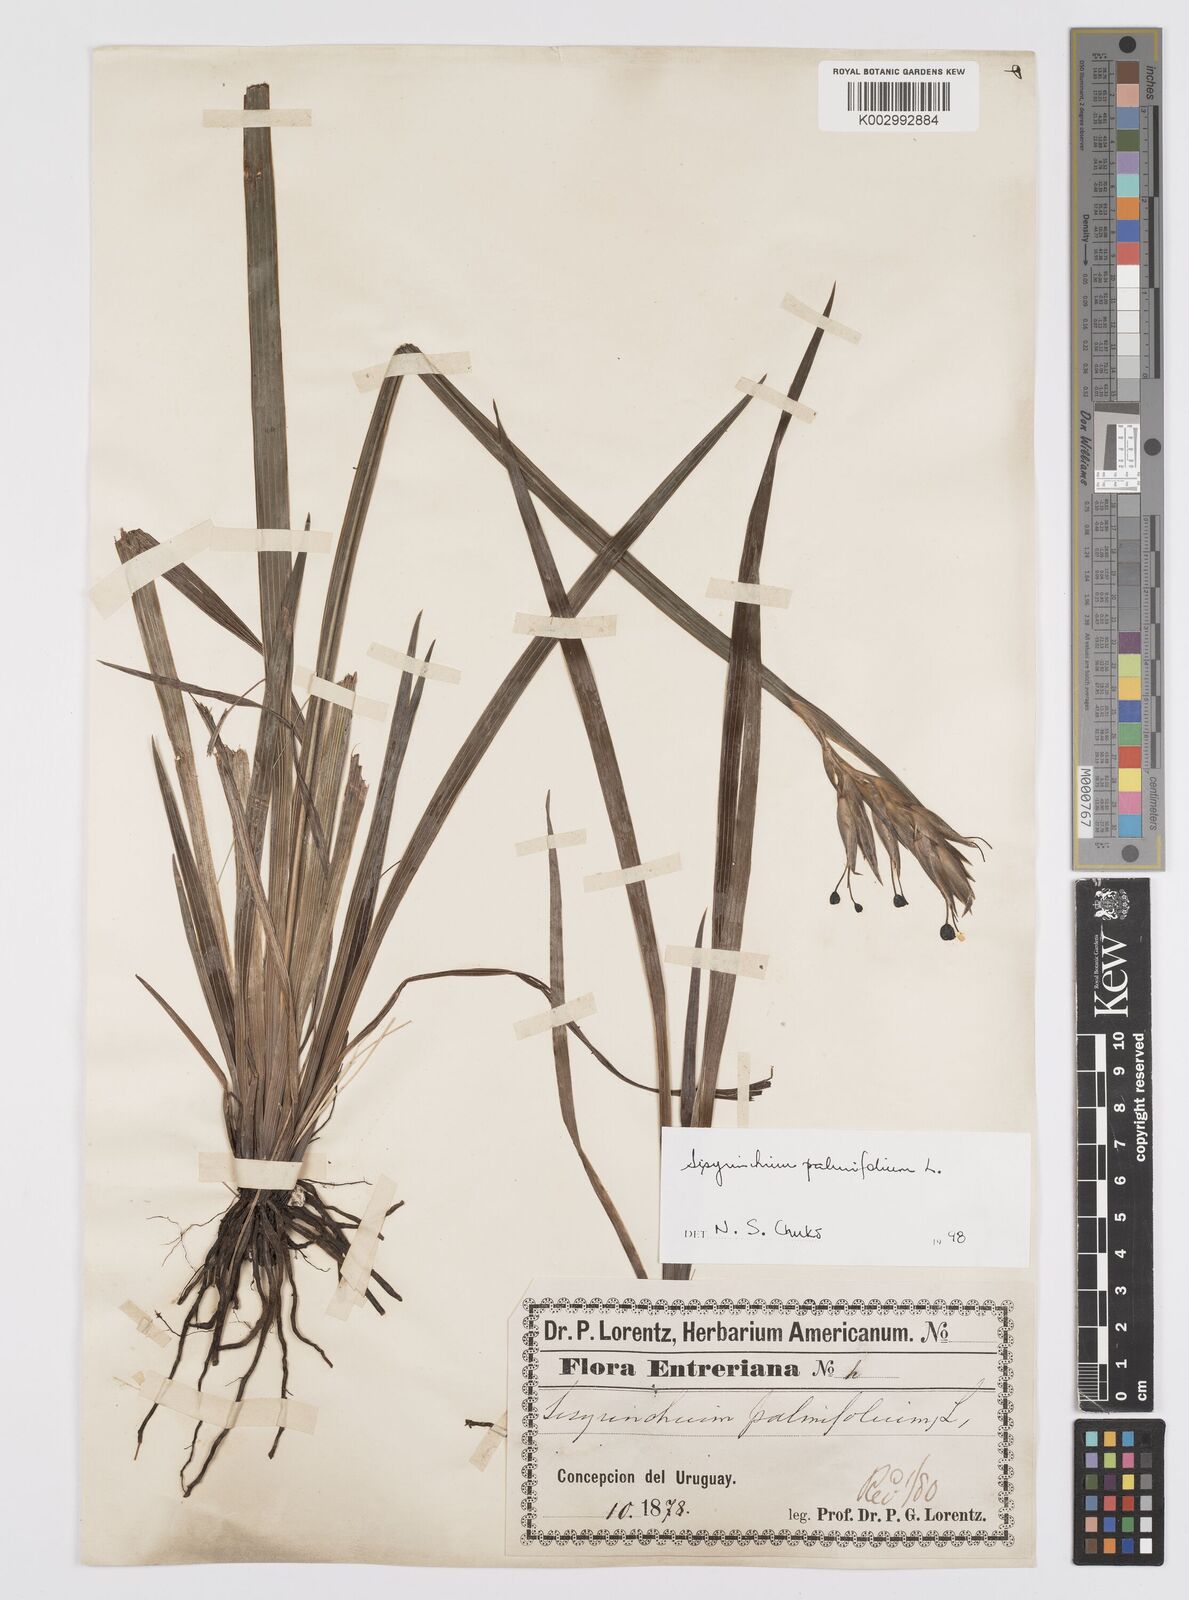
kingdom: Plantae
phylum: Tracheophyta
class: Liliopsida
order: Asparagales
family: Iridaceae
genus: Sisyrinchium
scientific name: Sisyrinchium palmifolium
